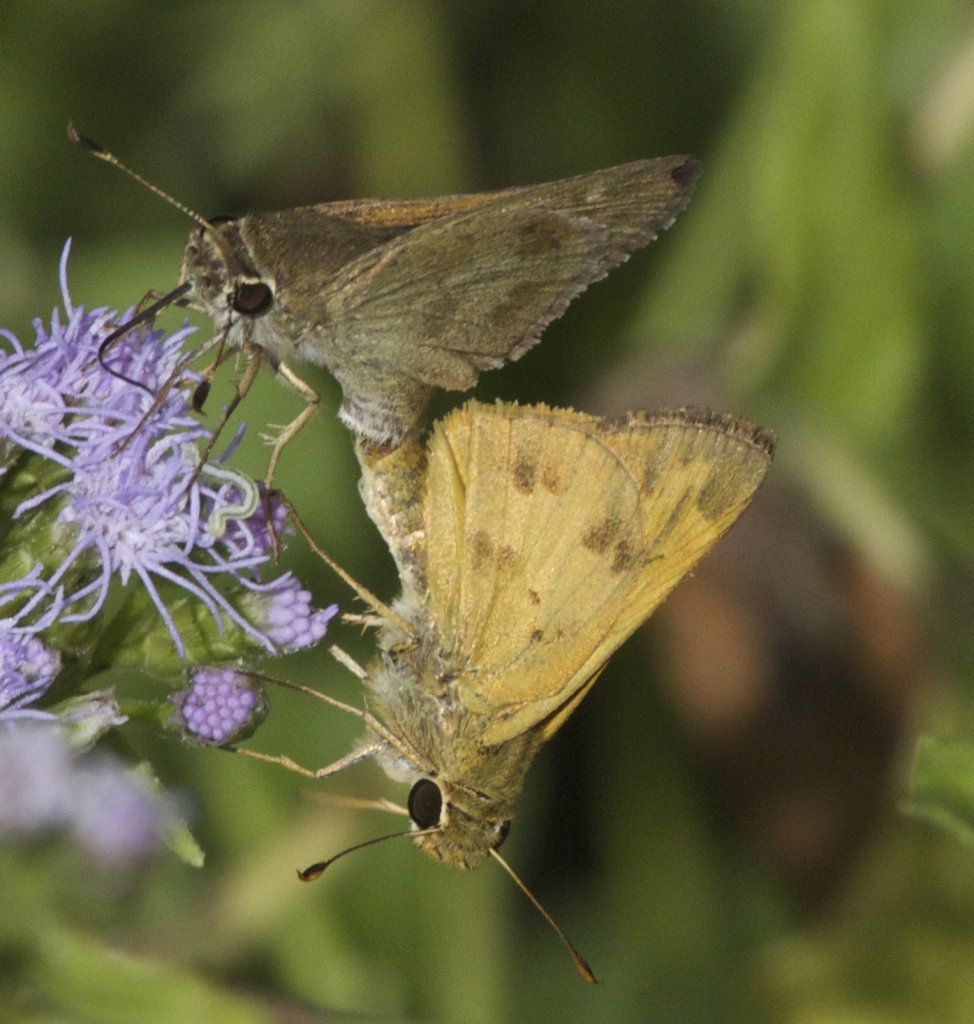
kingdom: Animalia
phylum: Arthropoda
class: Insecta
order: Lepidoptera
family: Hesperiidae
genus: Polites
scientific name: Polites vibex
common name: Whirlabout
